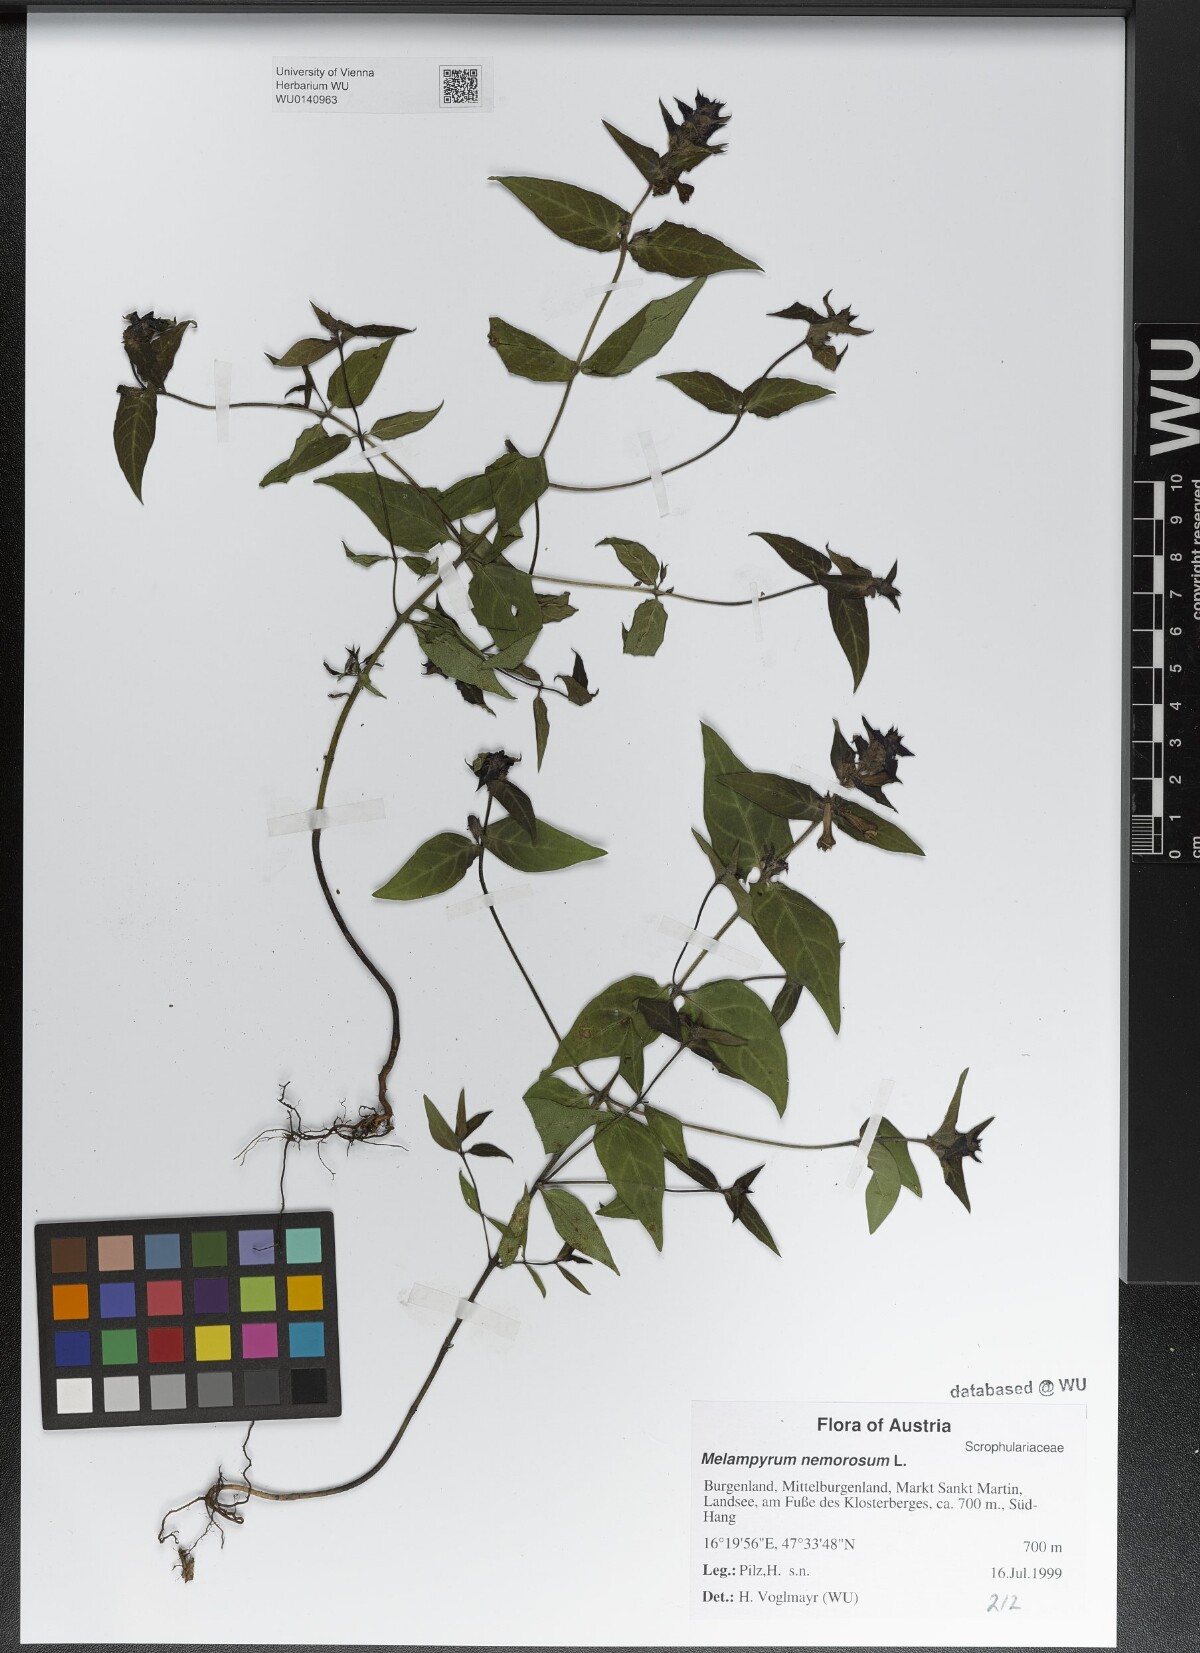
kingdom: Plantae
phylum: Tracheophyta
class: Magnoliopsida
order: Lamiales
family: Orobanchaceae
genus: Melampyrum
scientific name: Melampyrum nemorosum
